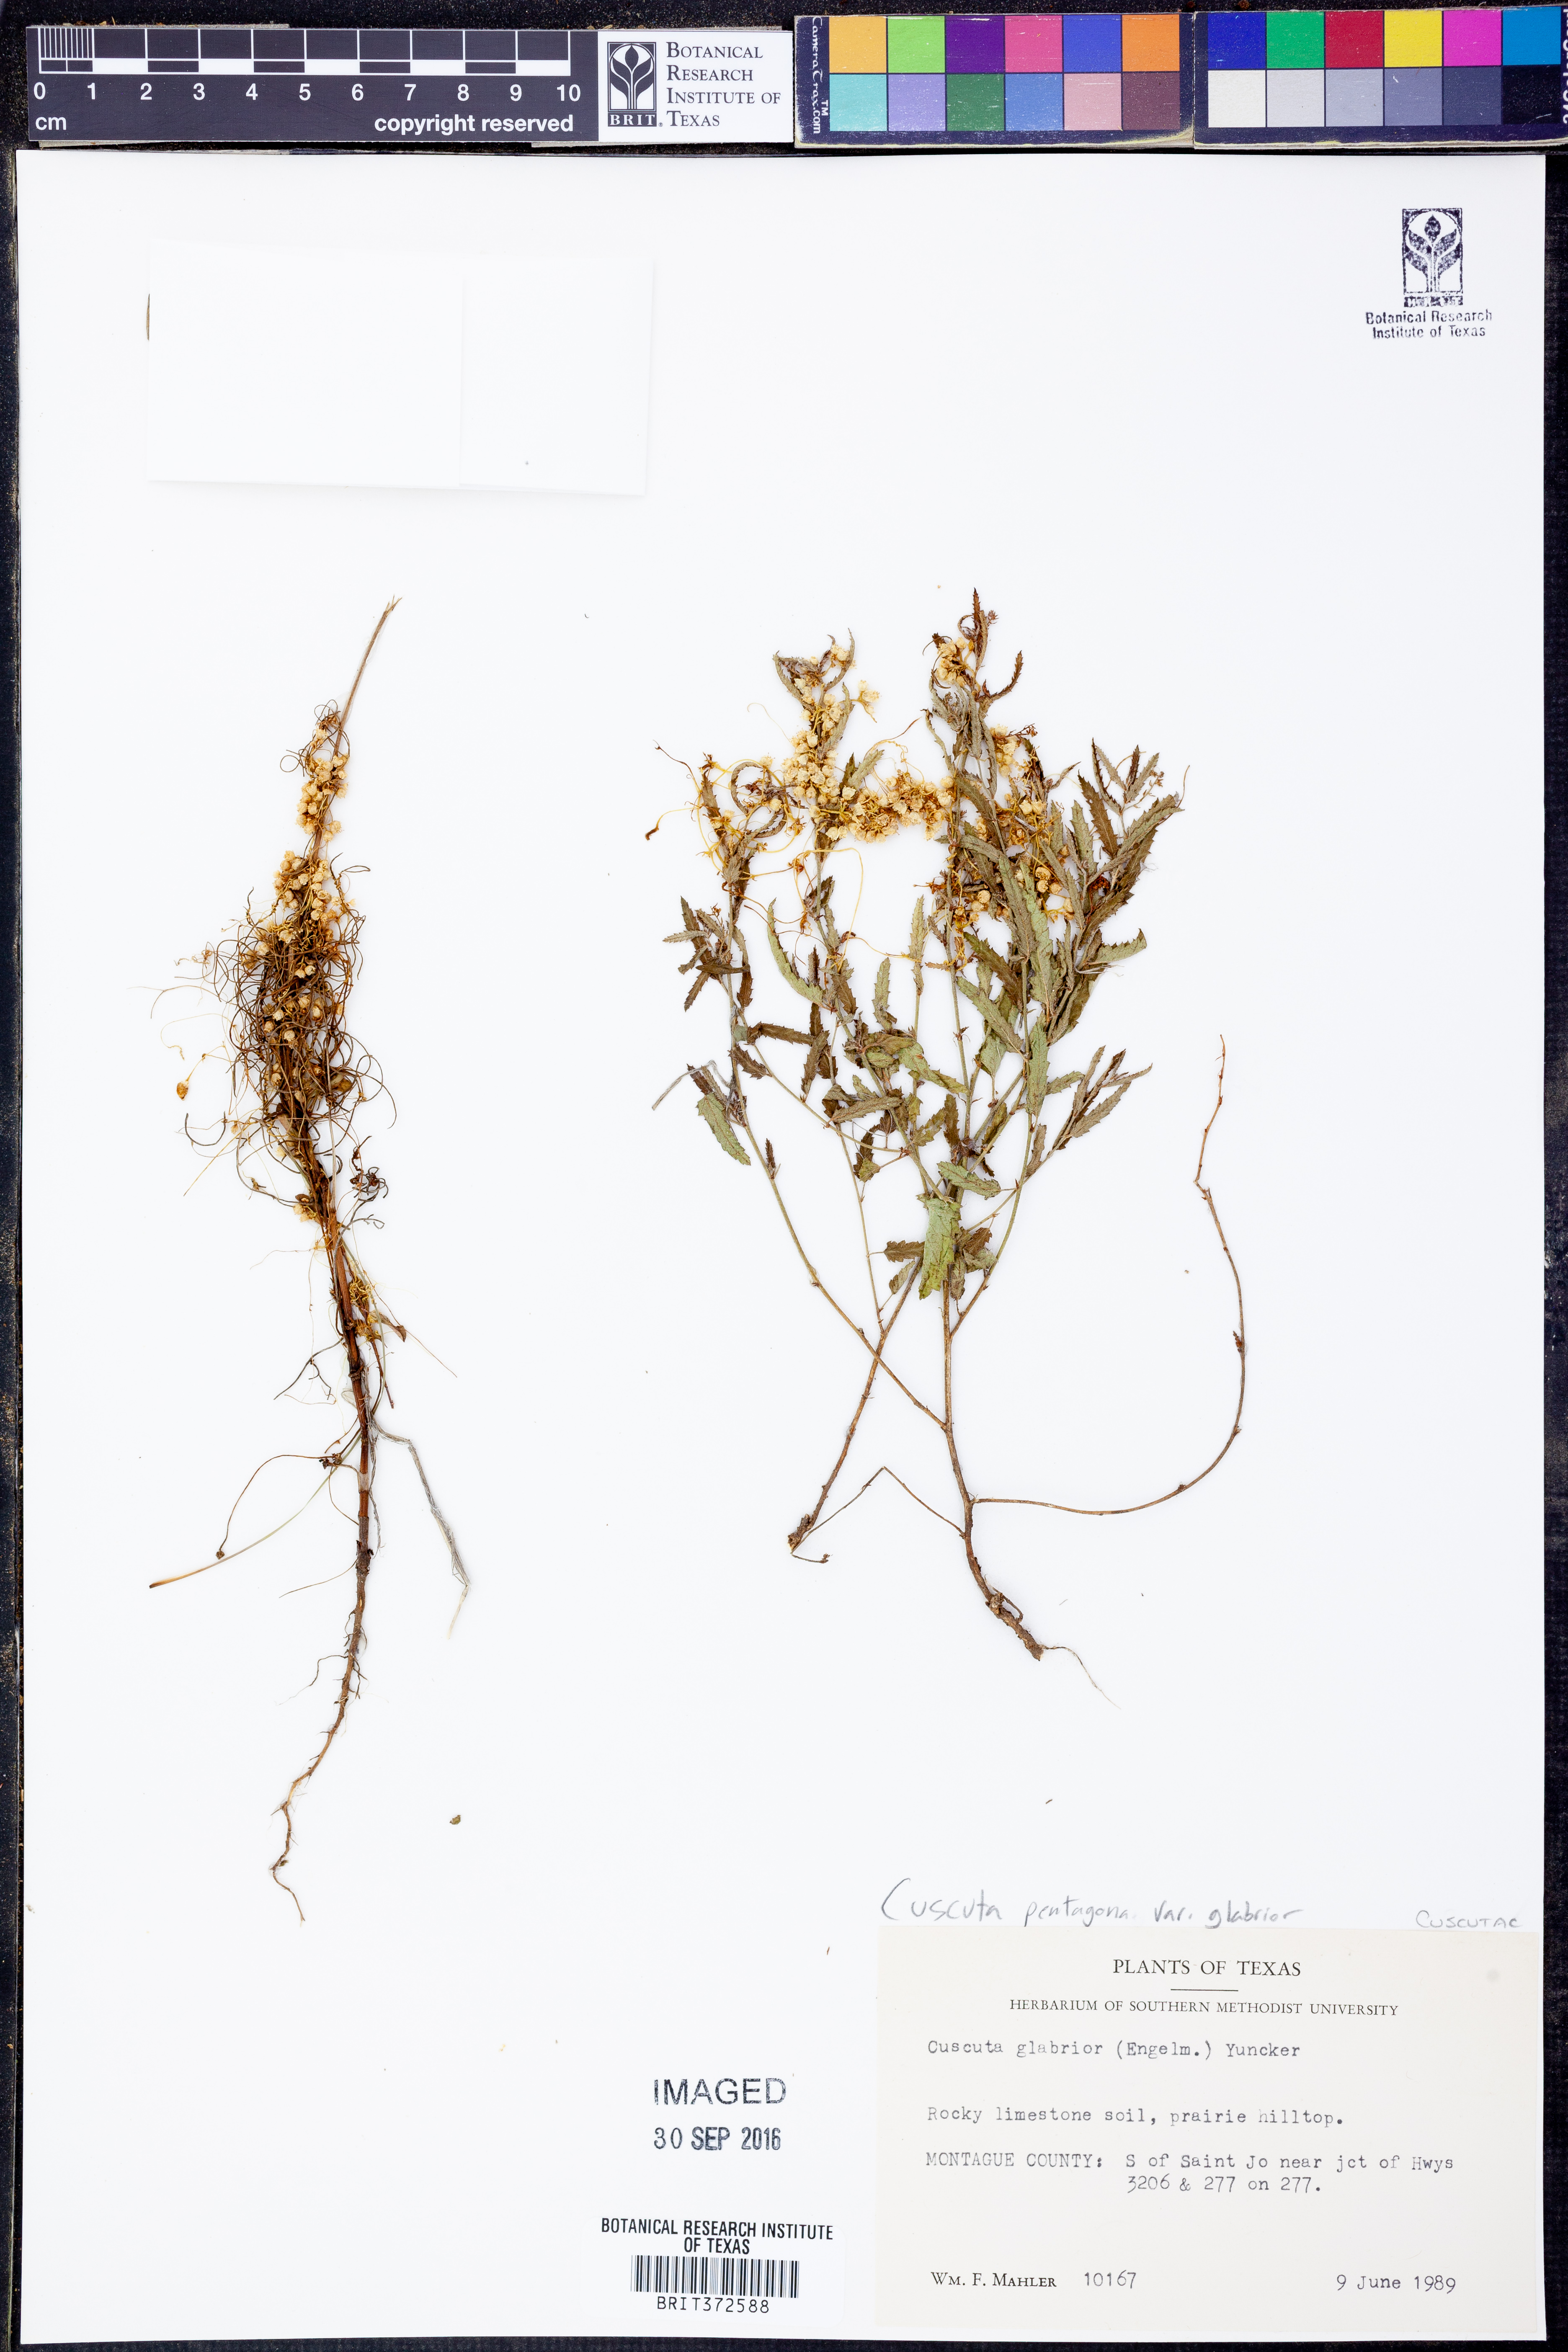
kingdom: Plantae
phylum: Tracheophyta
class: Magnoliopsida
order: Solanales
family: Convolvulaceae
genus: Cuscuta
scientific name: Cuscuta pentagona
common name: Fiveangled dodder
